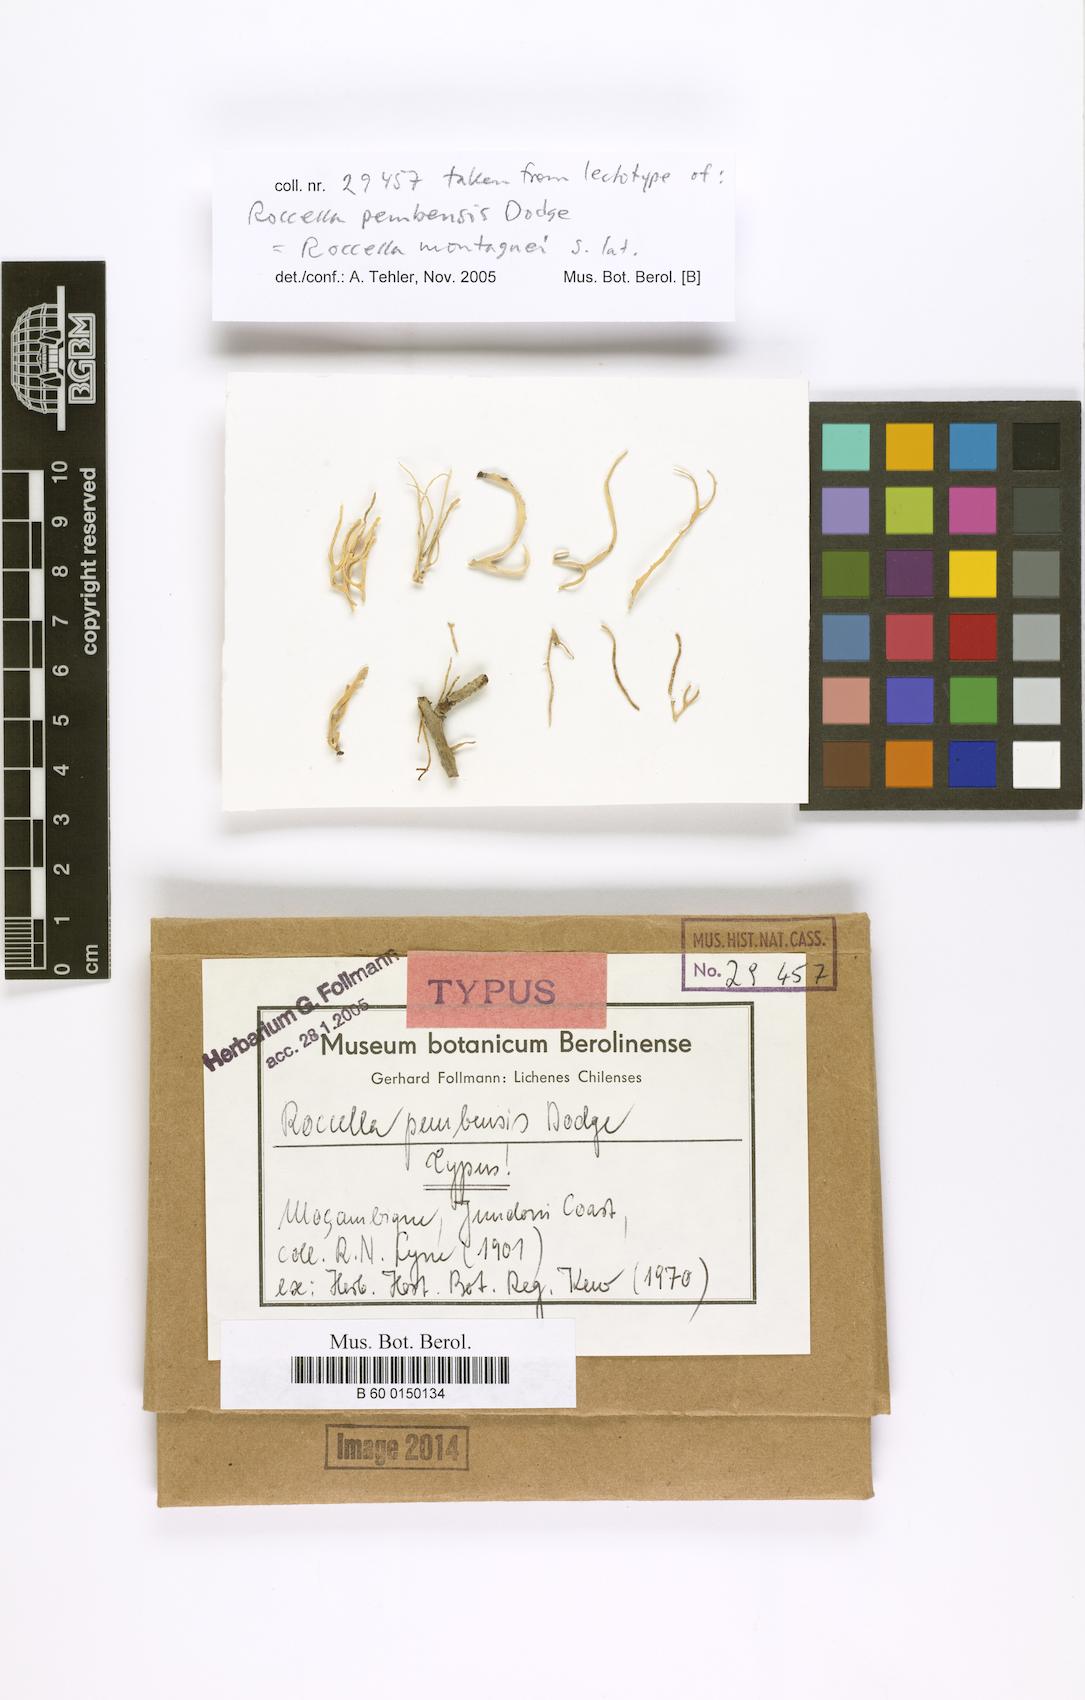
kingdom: Fungi
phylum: Ascomycota
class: Arthoniomycetes
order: Arthoniales
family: Roccellaceae
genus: Roccella
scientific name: Roccella
